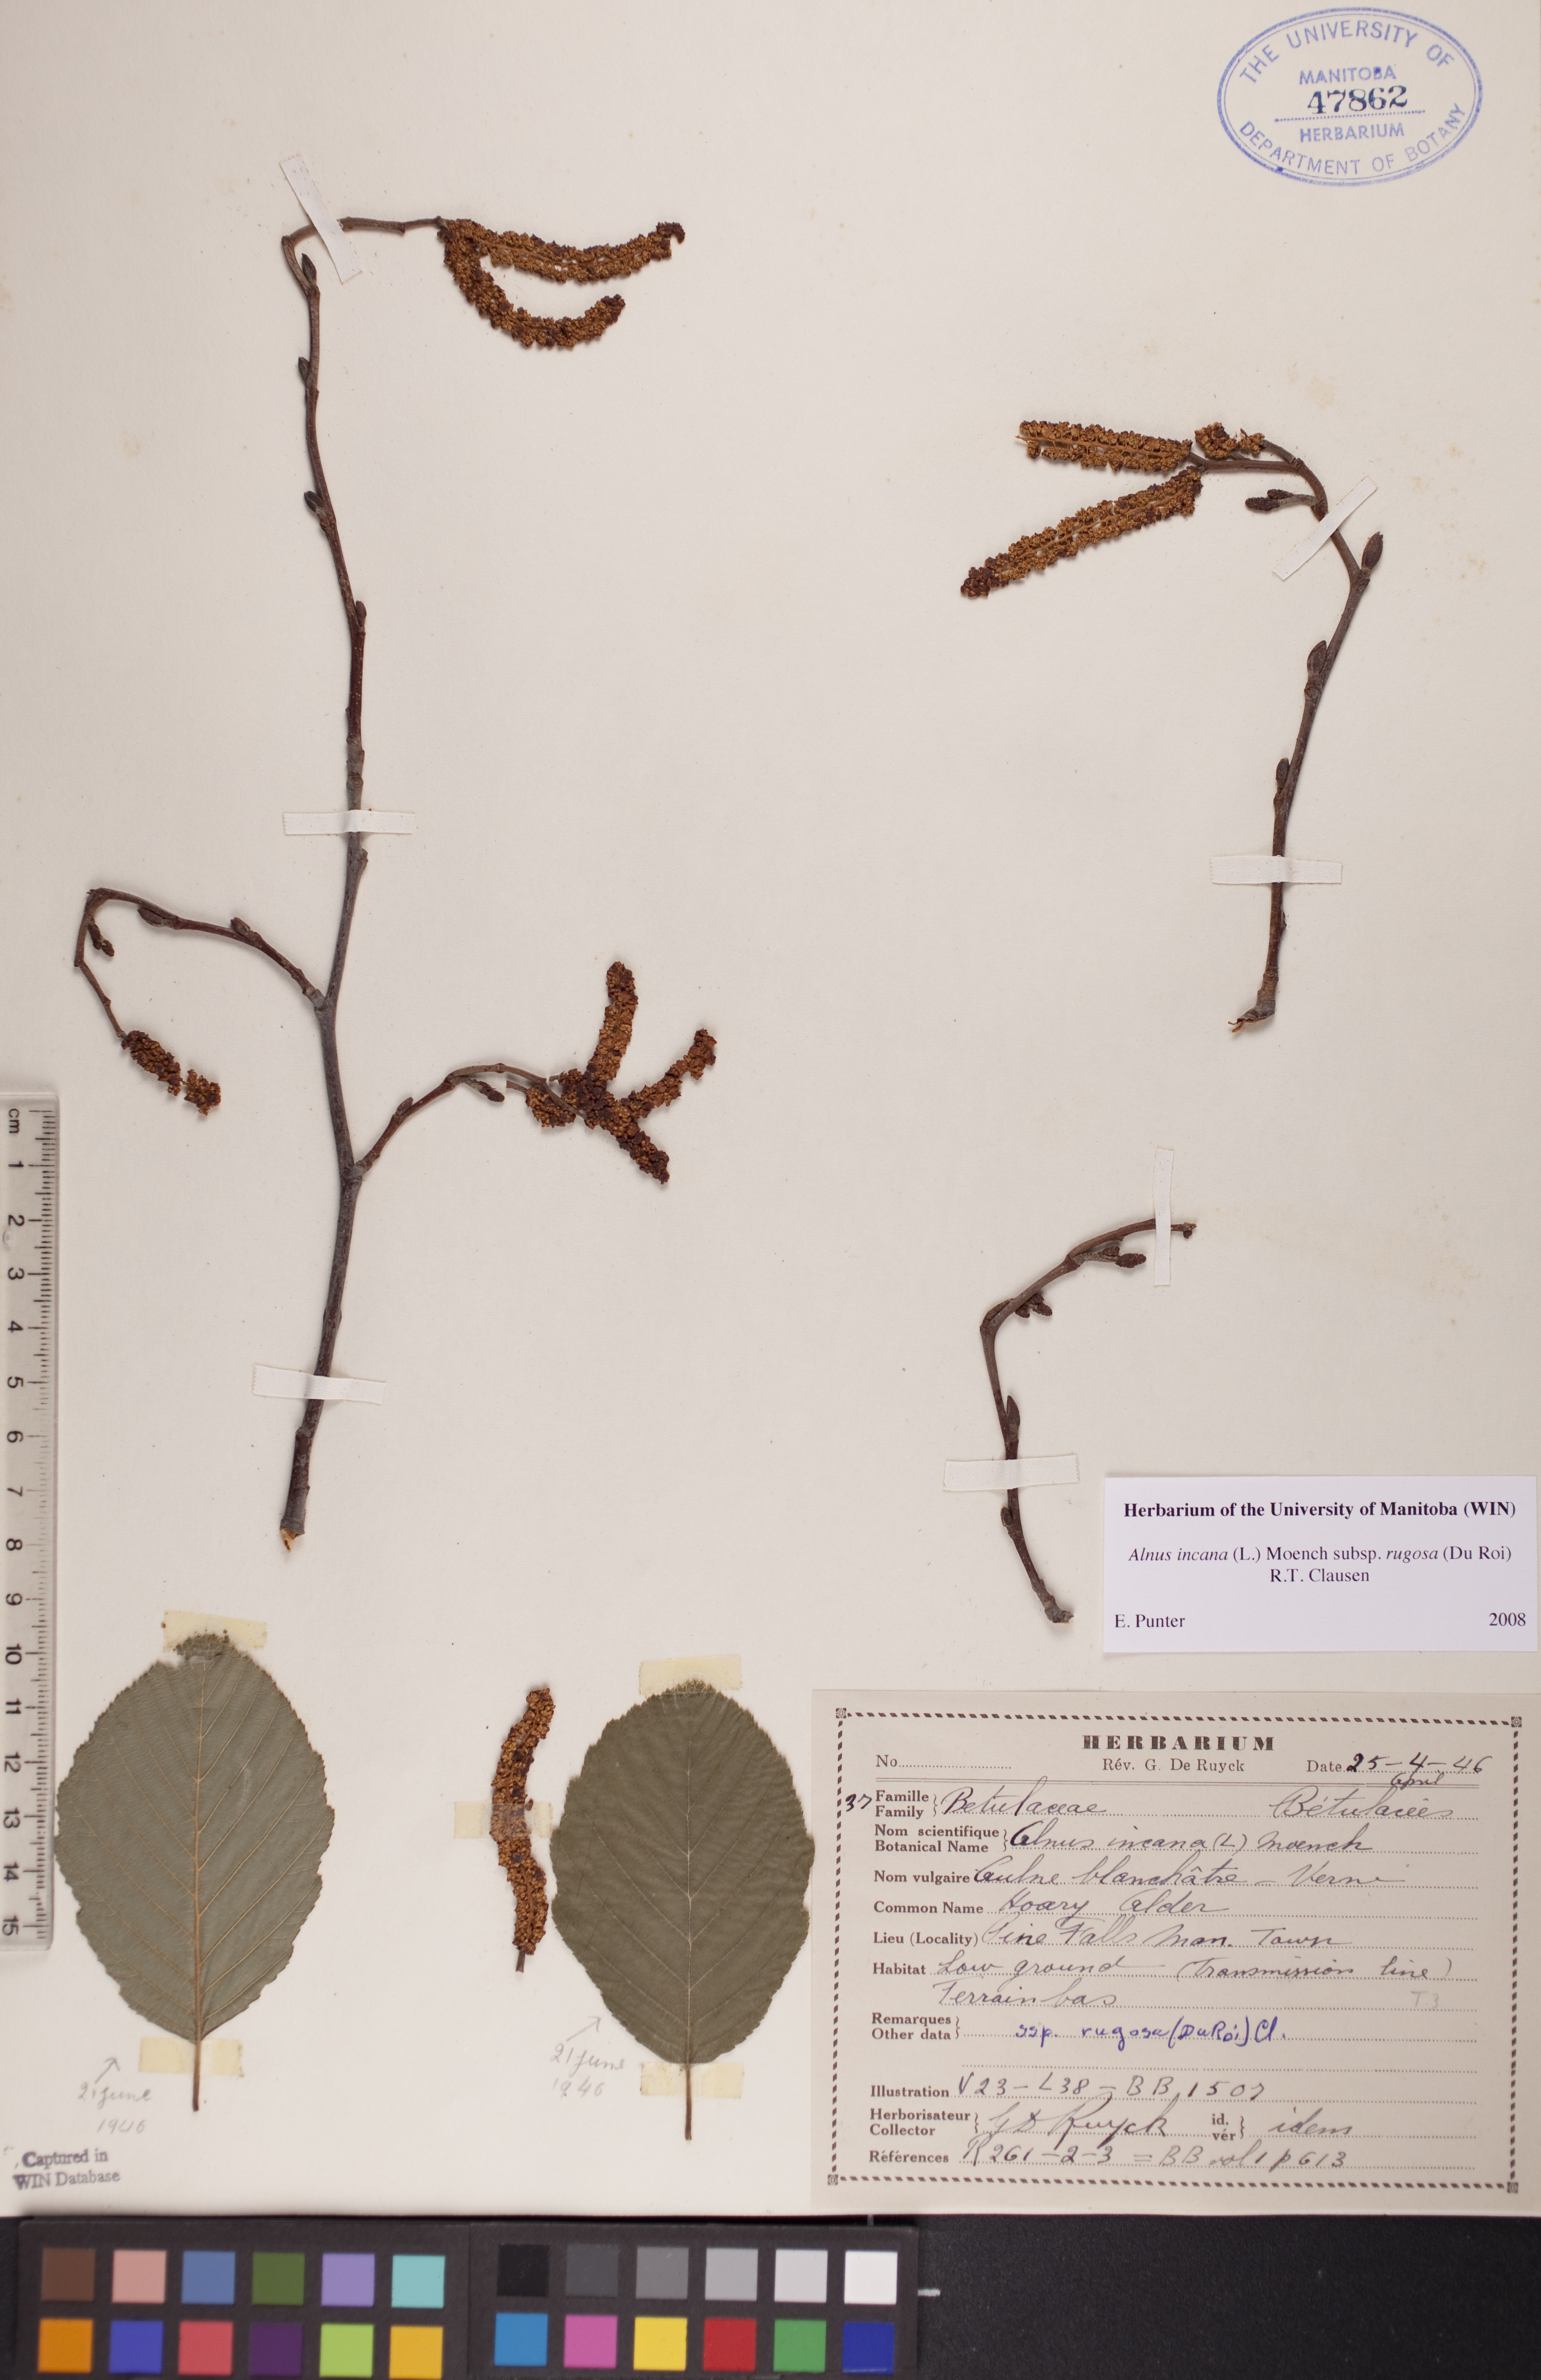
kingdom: Plantae
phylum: Tracheophyta
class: Magnoliopsida
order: Fagales
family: Betulaceae
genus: Alnus
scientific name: Alnus incana
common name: Grey alder
